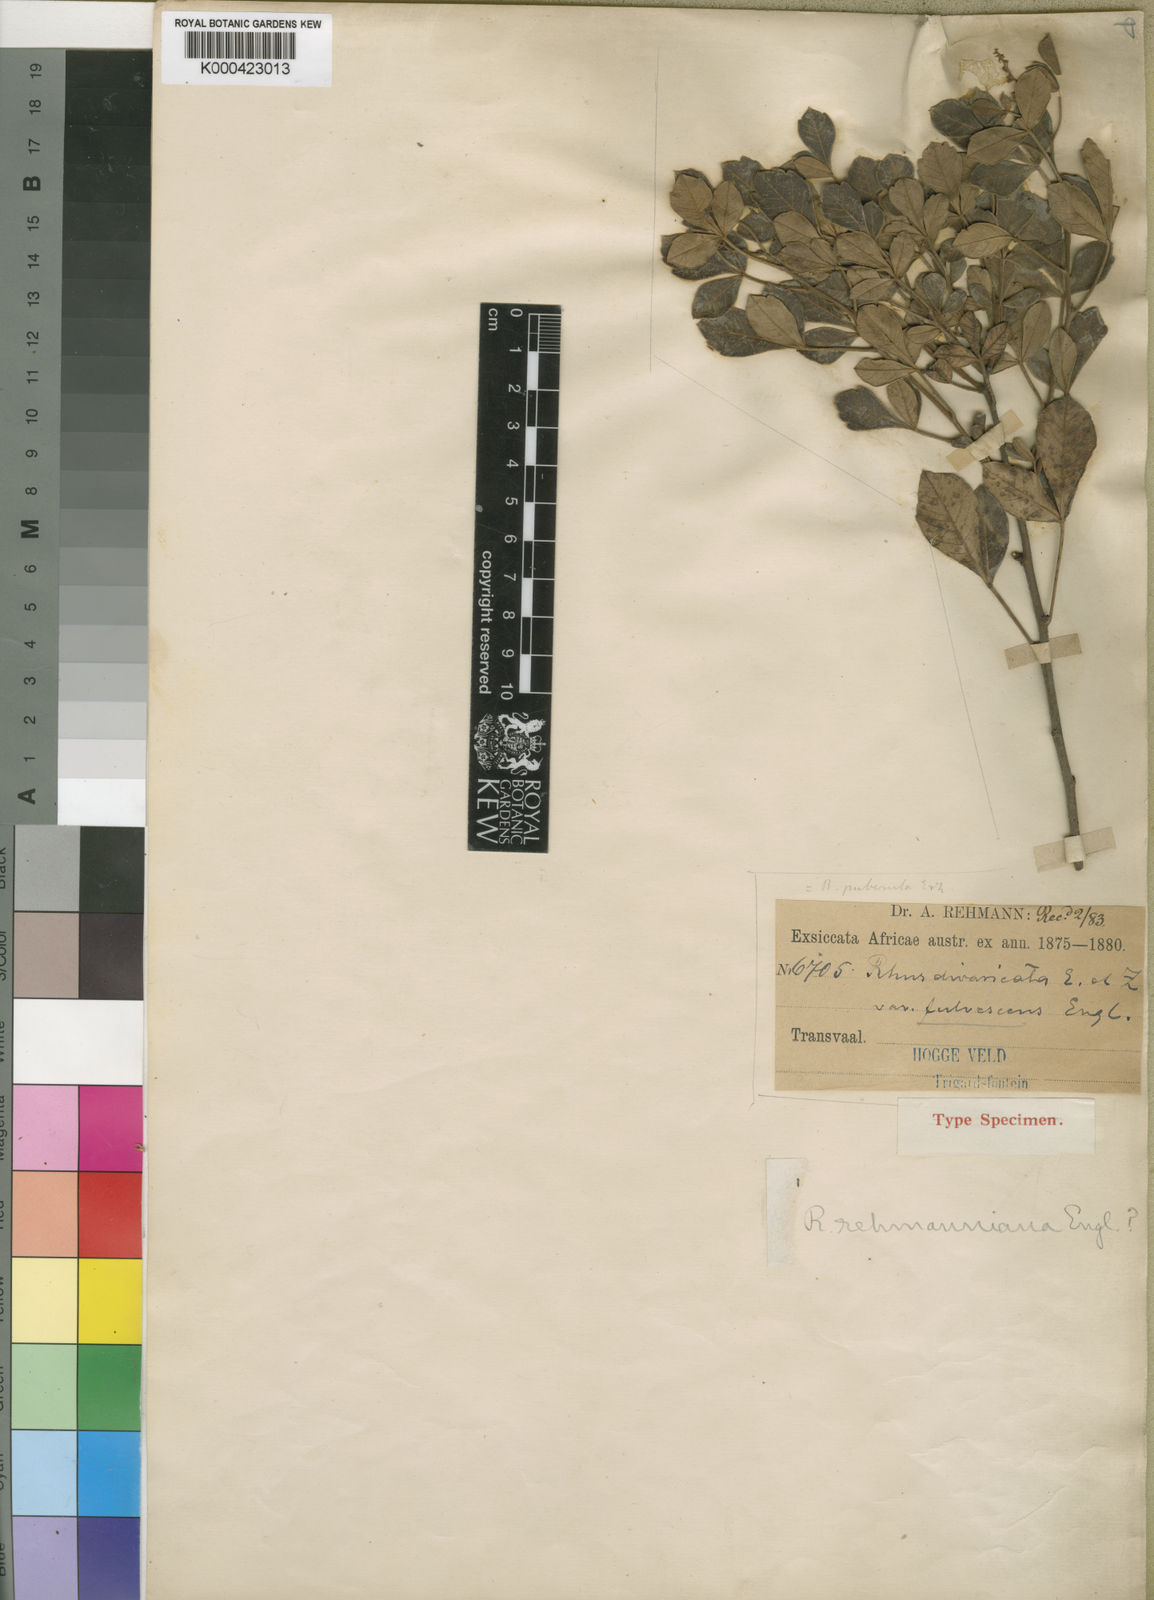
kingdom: Plantae
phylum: Tracheophyta
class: Magnoliopsida
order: Sapindales
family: Anacardiaceae
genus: Searsia
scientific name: Searsia divaricata
